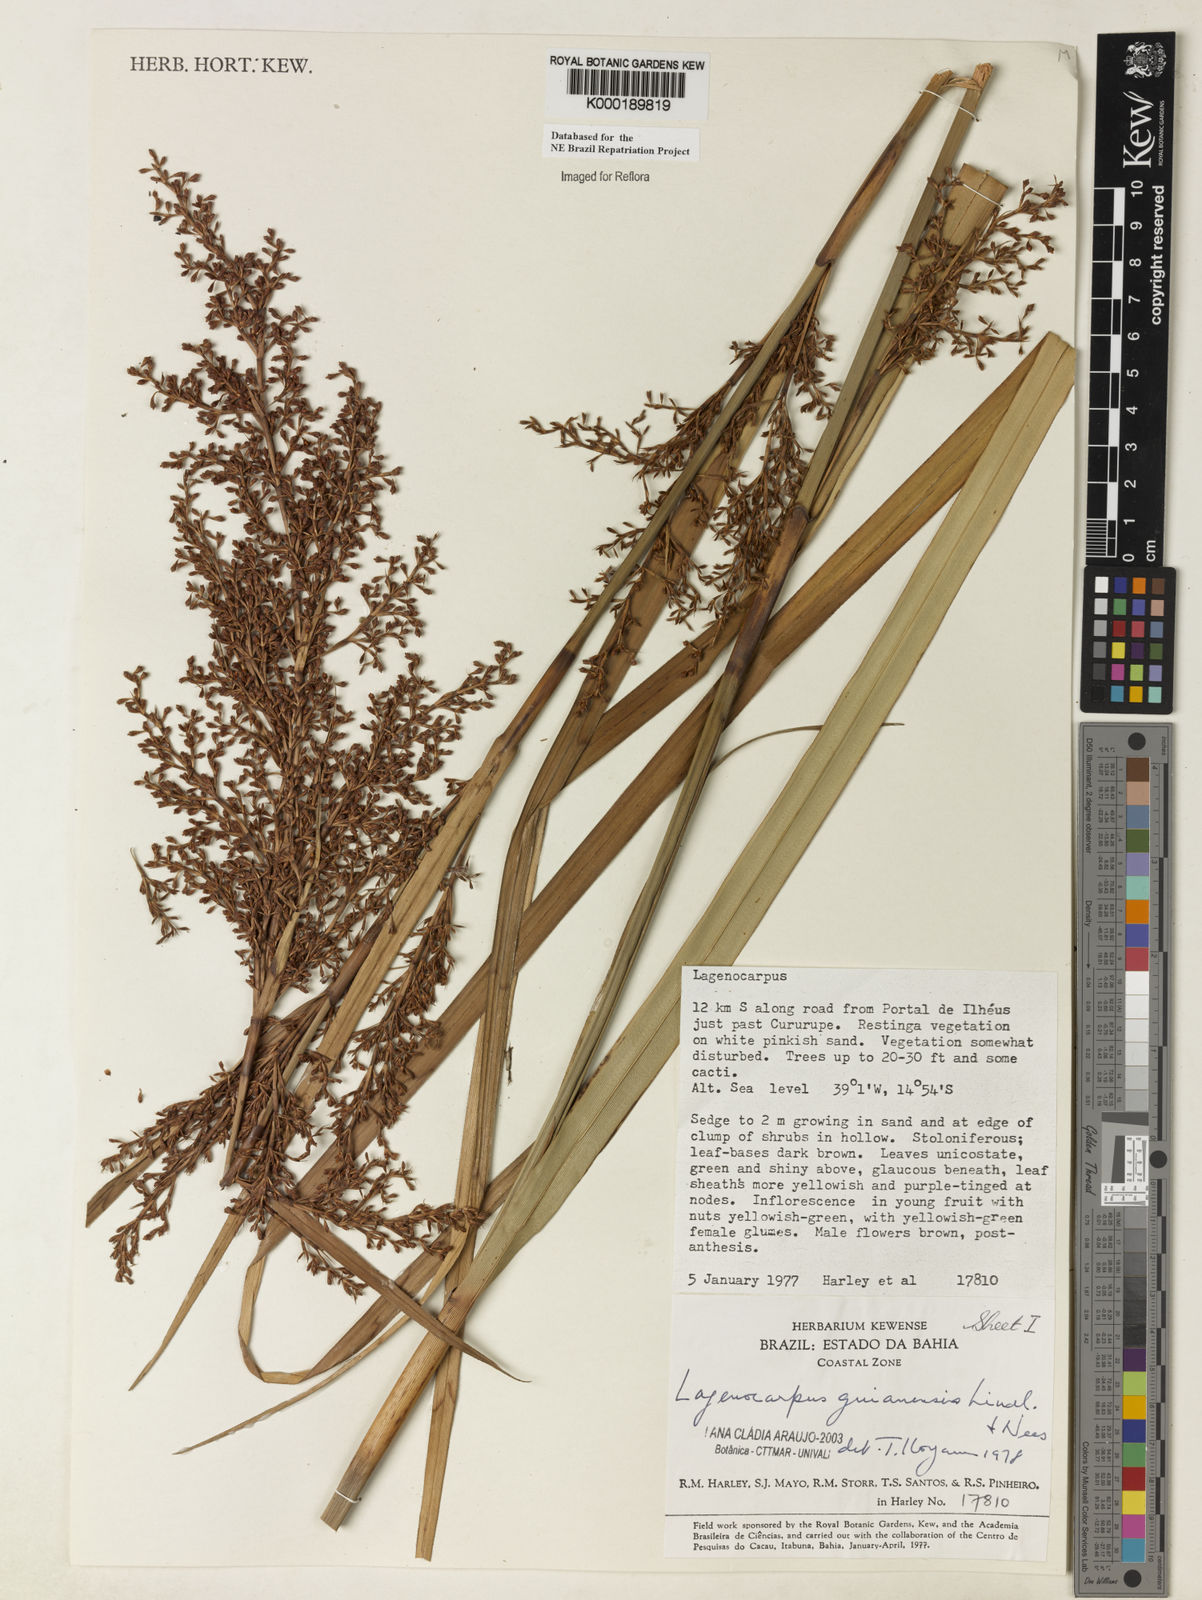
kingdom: Plantae
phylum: Tracheophyta
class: Liliopsida
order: Poales
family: Cyperaceae
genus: Lagenocarpus
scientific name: Lagenocarpus guianensis
